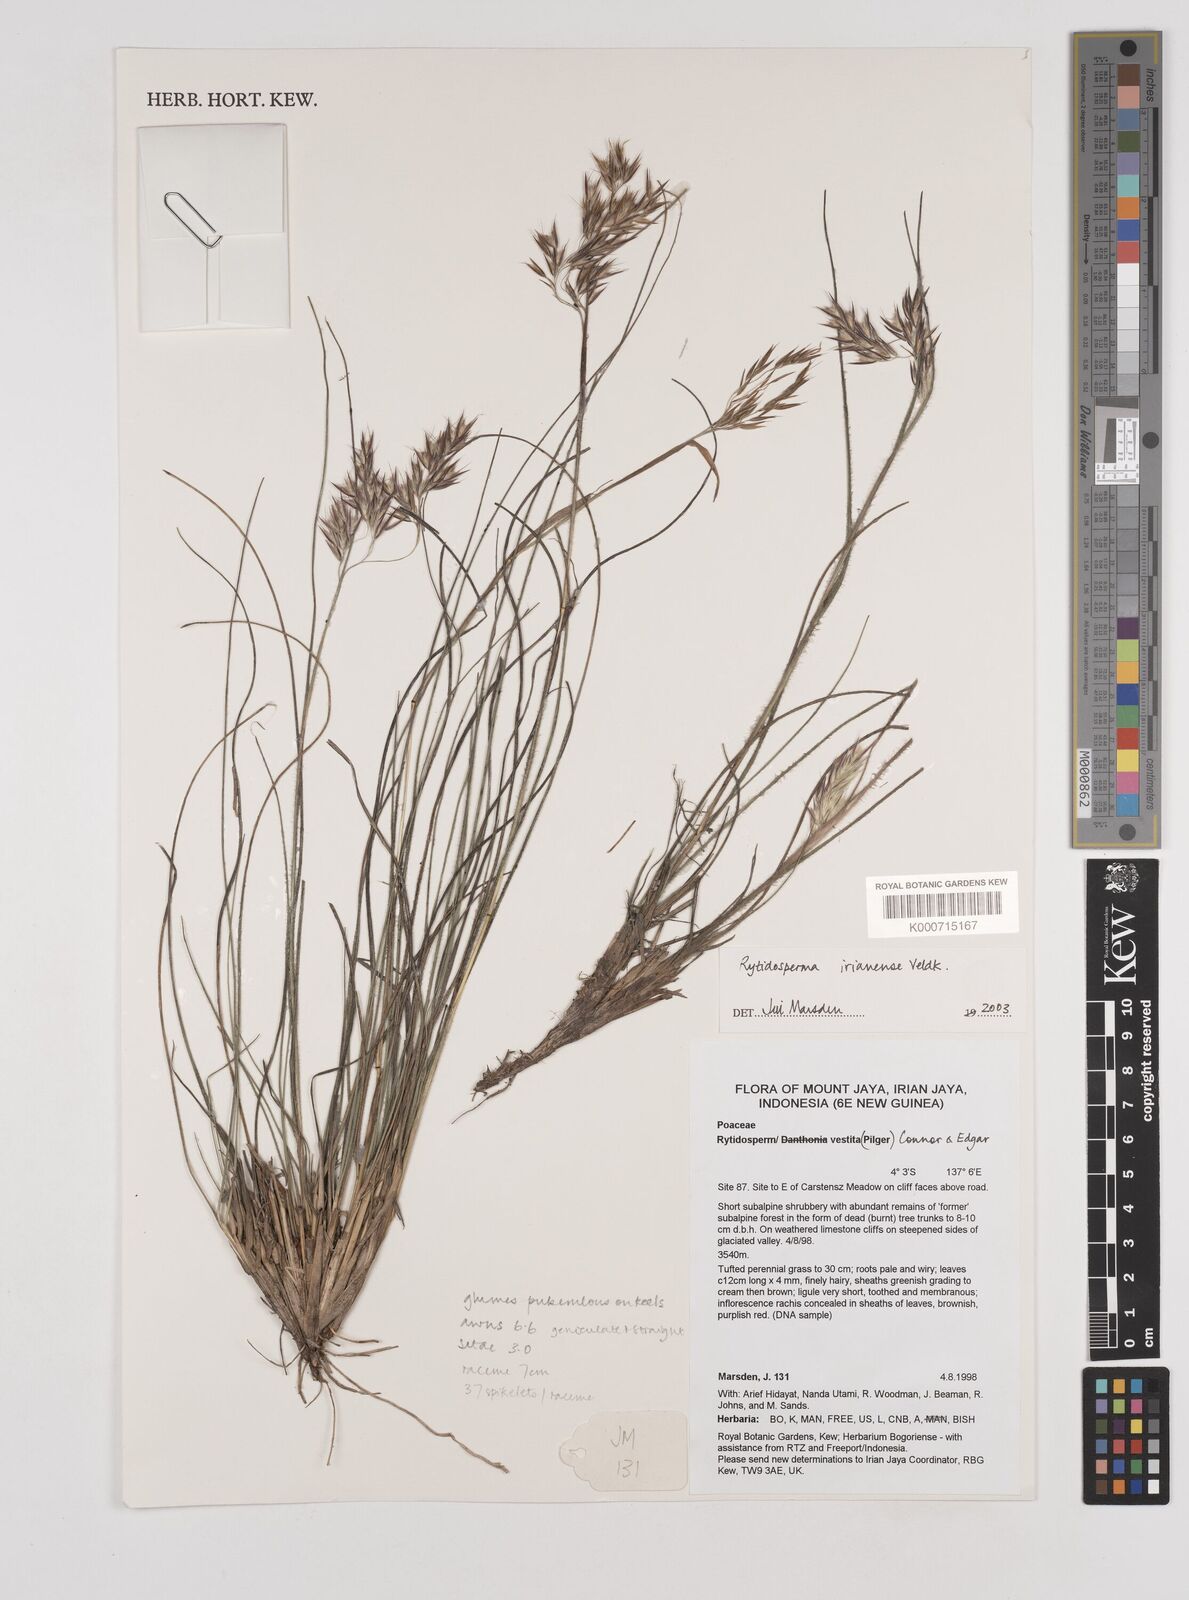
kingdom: Plantae
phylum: Tracheophyta
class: Liliopsida
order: Poales
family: Poaceae
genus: Rytidosperma
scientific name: Rytidosperma irianense
